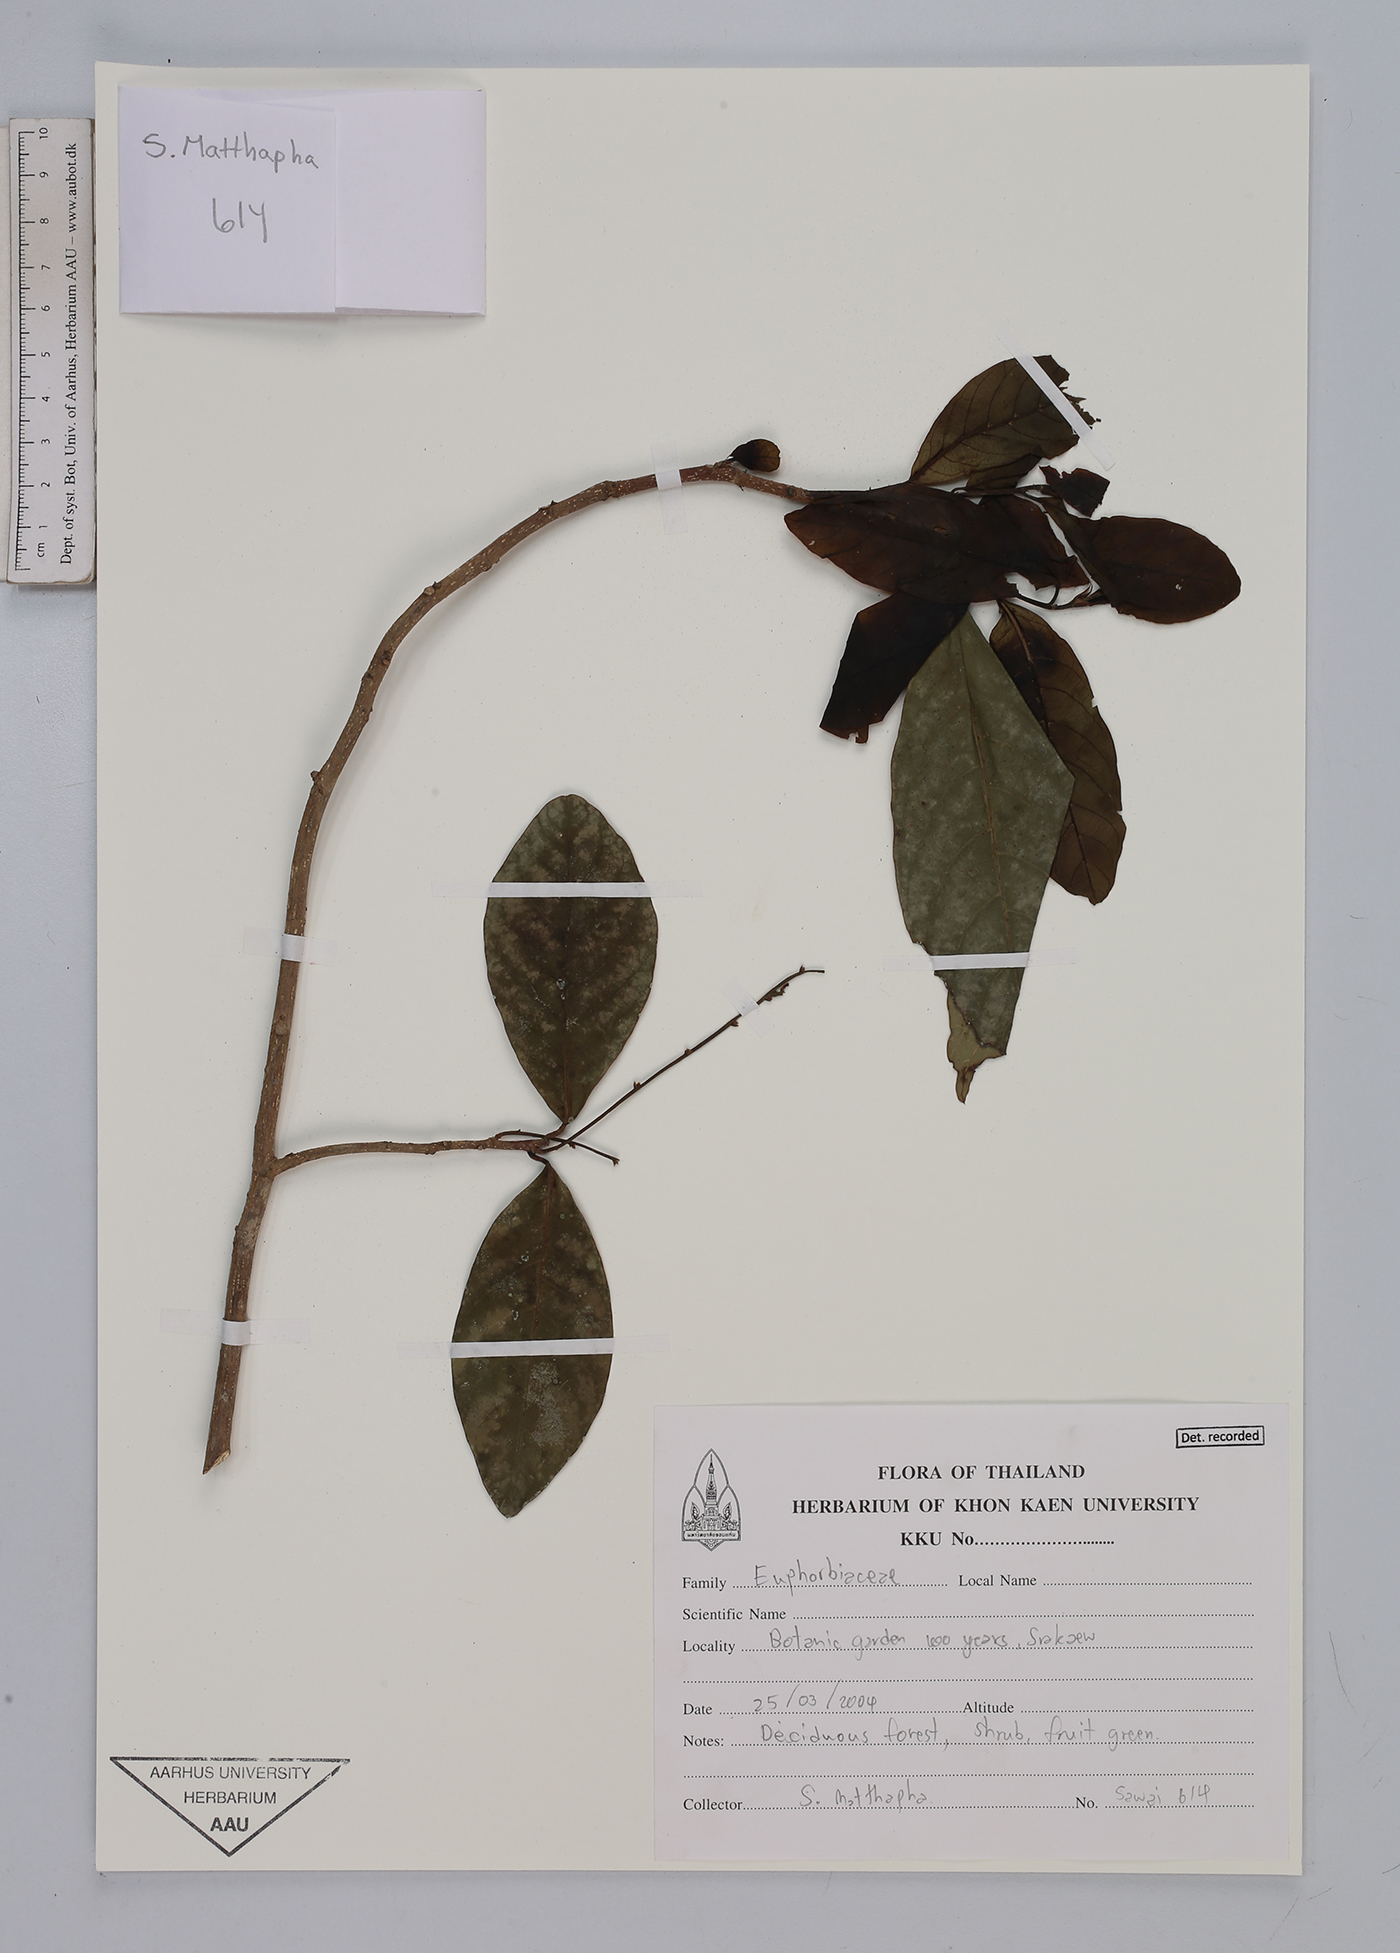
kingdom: Plantae
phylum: Tracheophyta
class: Magnoliopsida
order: Malpighiales
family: Euphorbiaceae
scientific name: Euphorbiaceae
